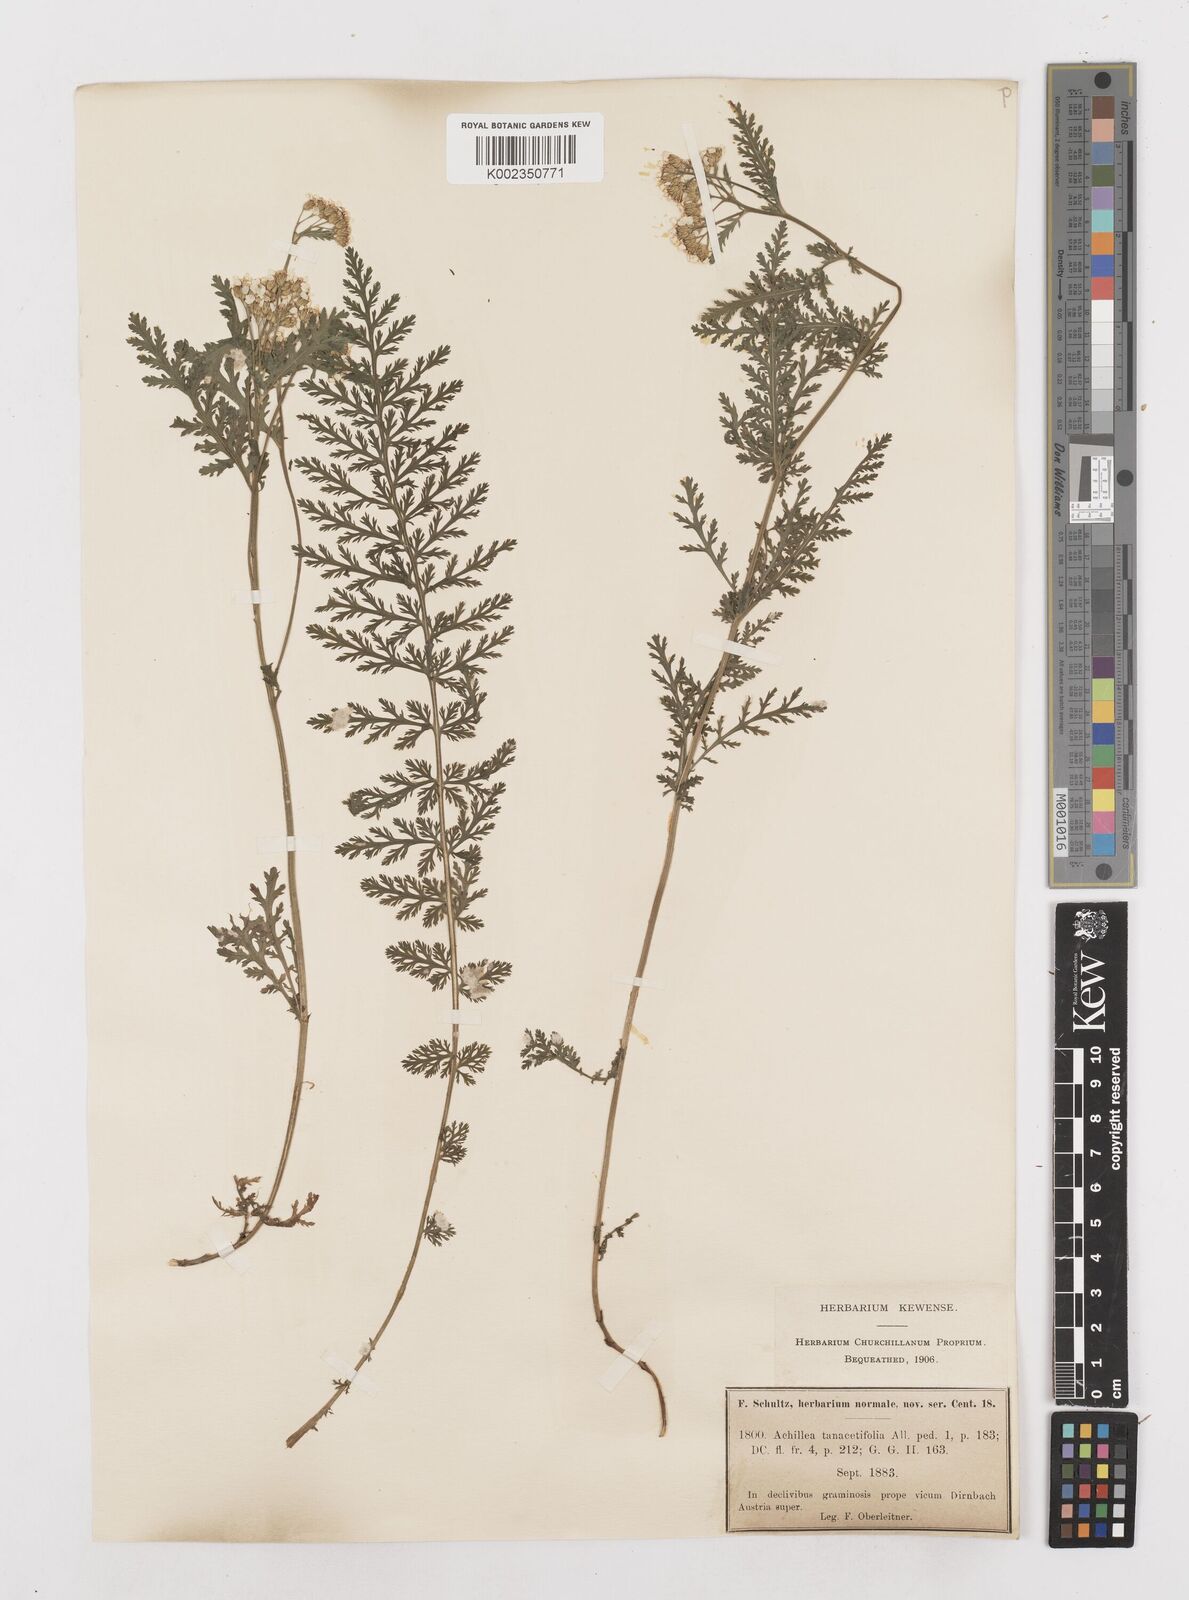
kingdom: Plantae
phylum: Tracheophyta
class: Magnoliopsida
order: Asterales
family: Asteraceae
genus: Achillea
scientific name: Achillea distans
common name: Tall yarrow
